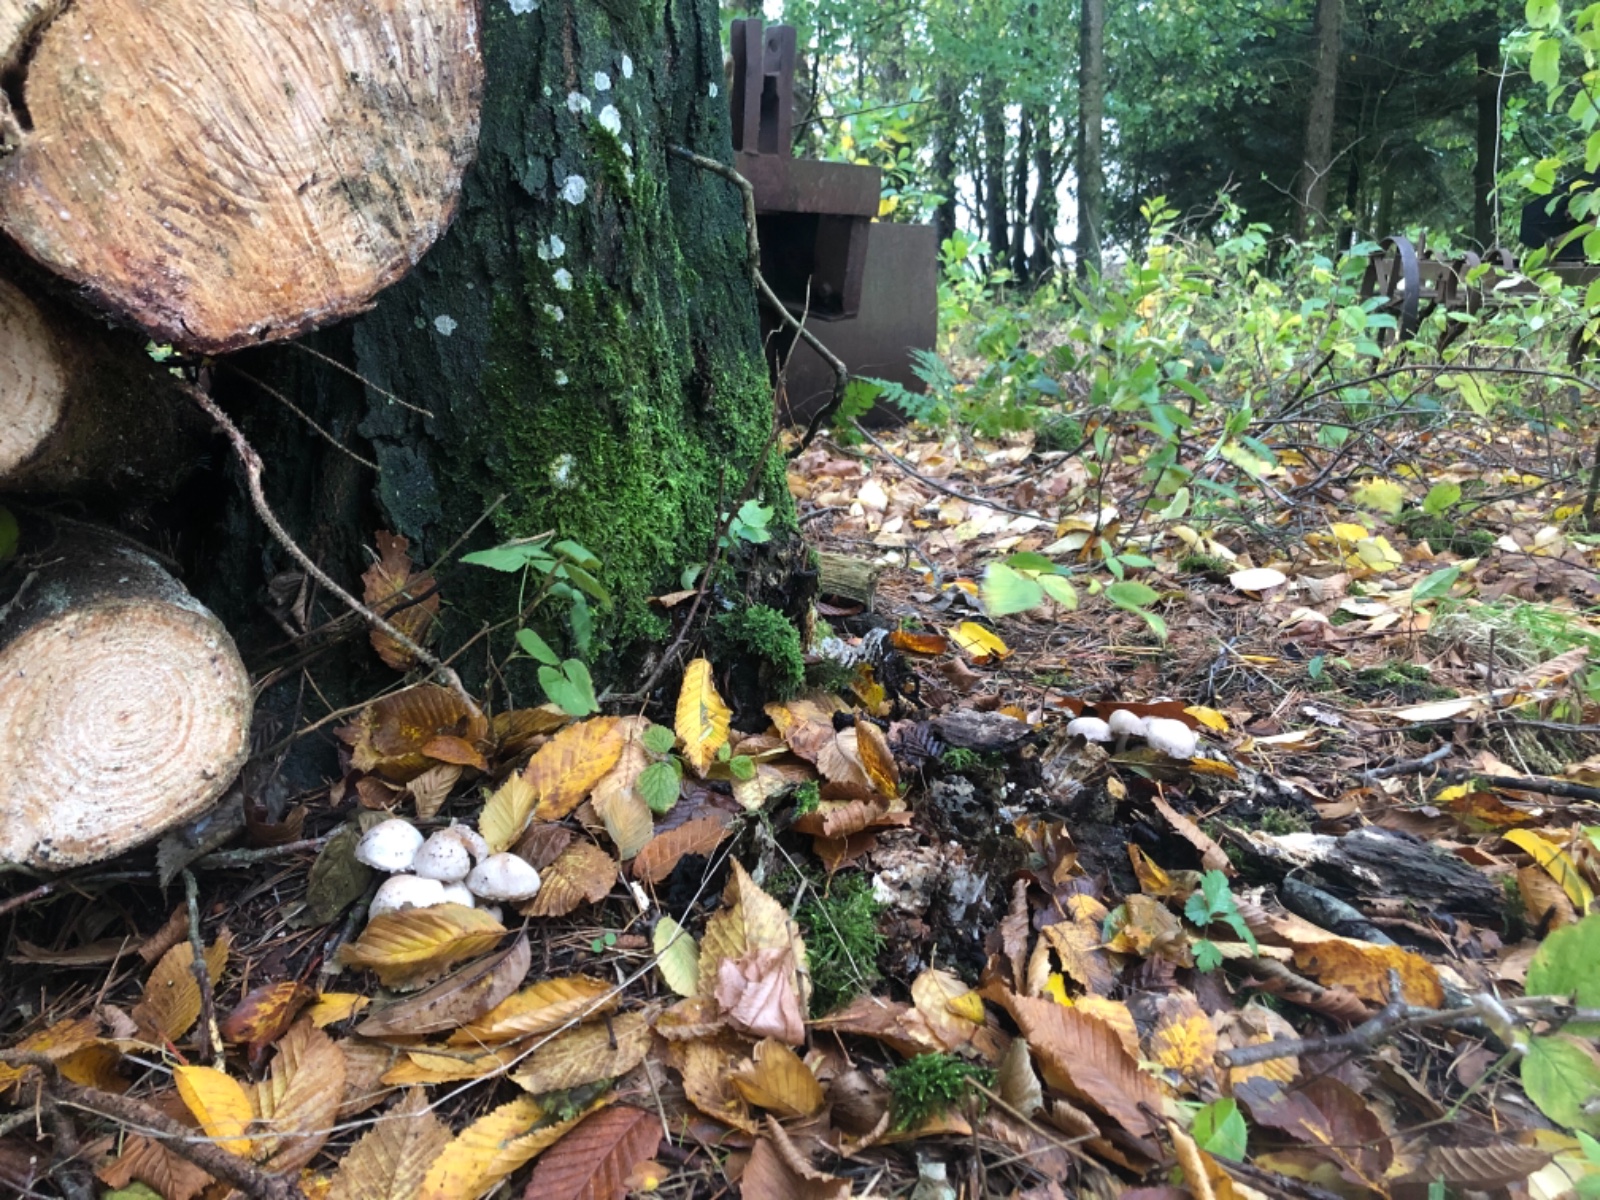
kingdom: Fungi
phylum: Basidiomycota
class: Agaricomycetes
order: Agaricales
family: Psathyrellaceae
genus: Psathyrella
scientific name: Psathyrella cotonea
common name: skællet mørkhat
